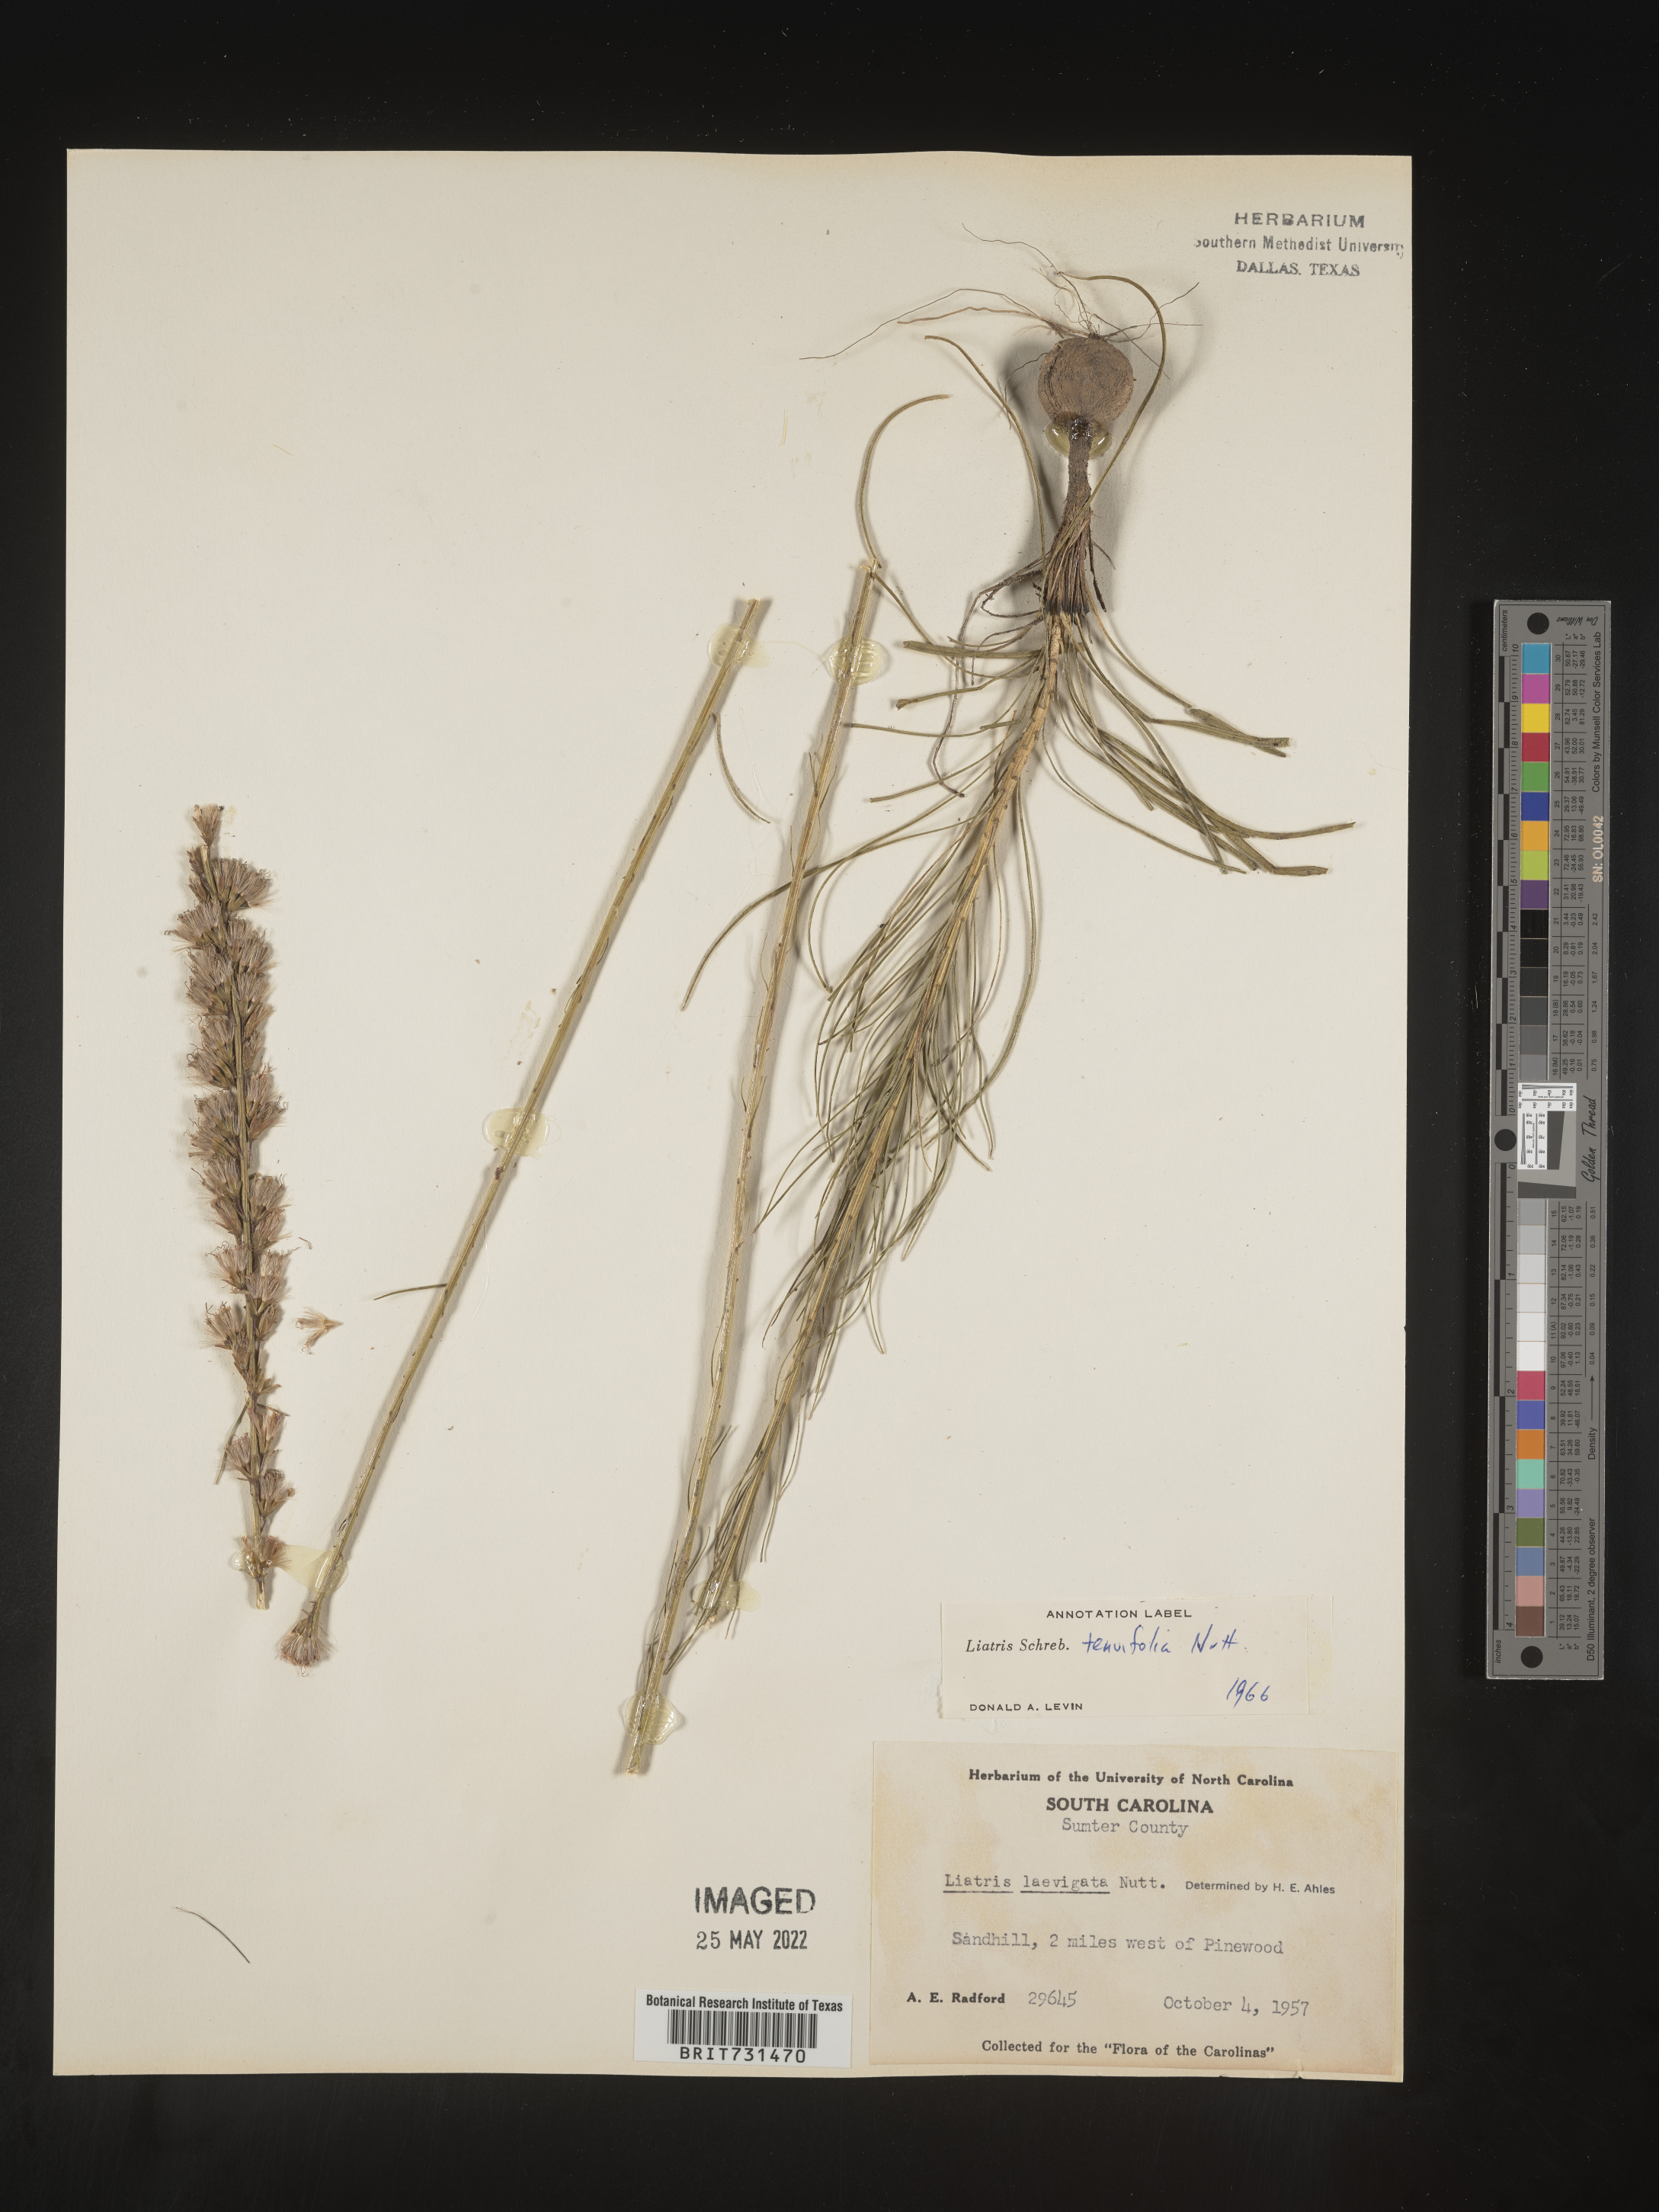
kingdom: Plantae
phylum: Tracheophyta
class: Magnoliopsida
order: Asterales
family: Asteraceae
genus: Liatris
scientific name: Liatris tenuifolia
